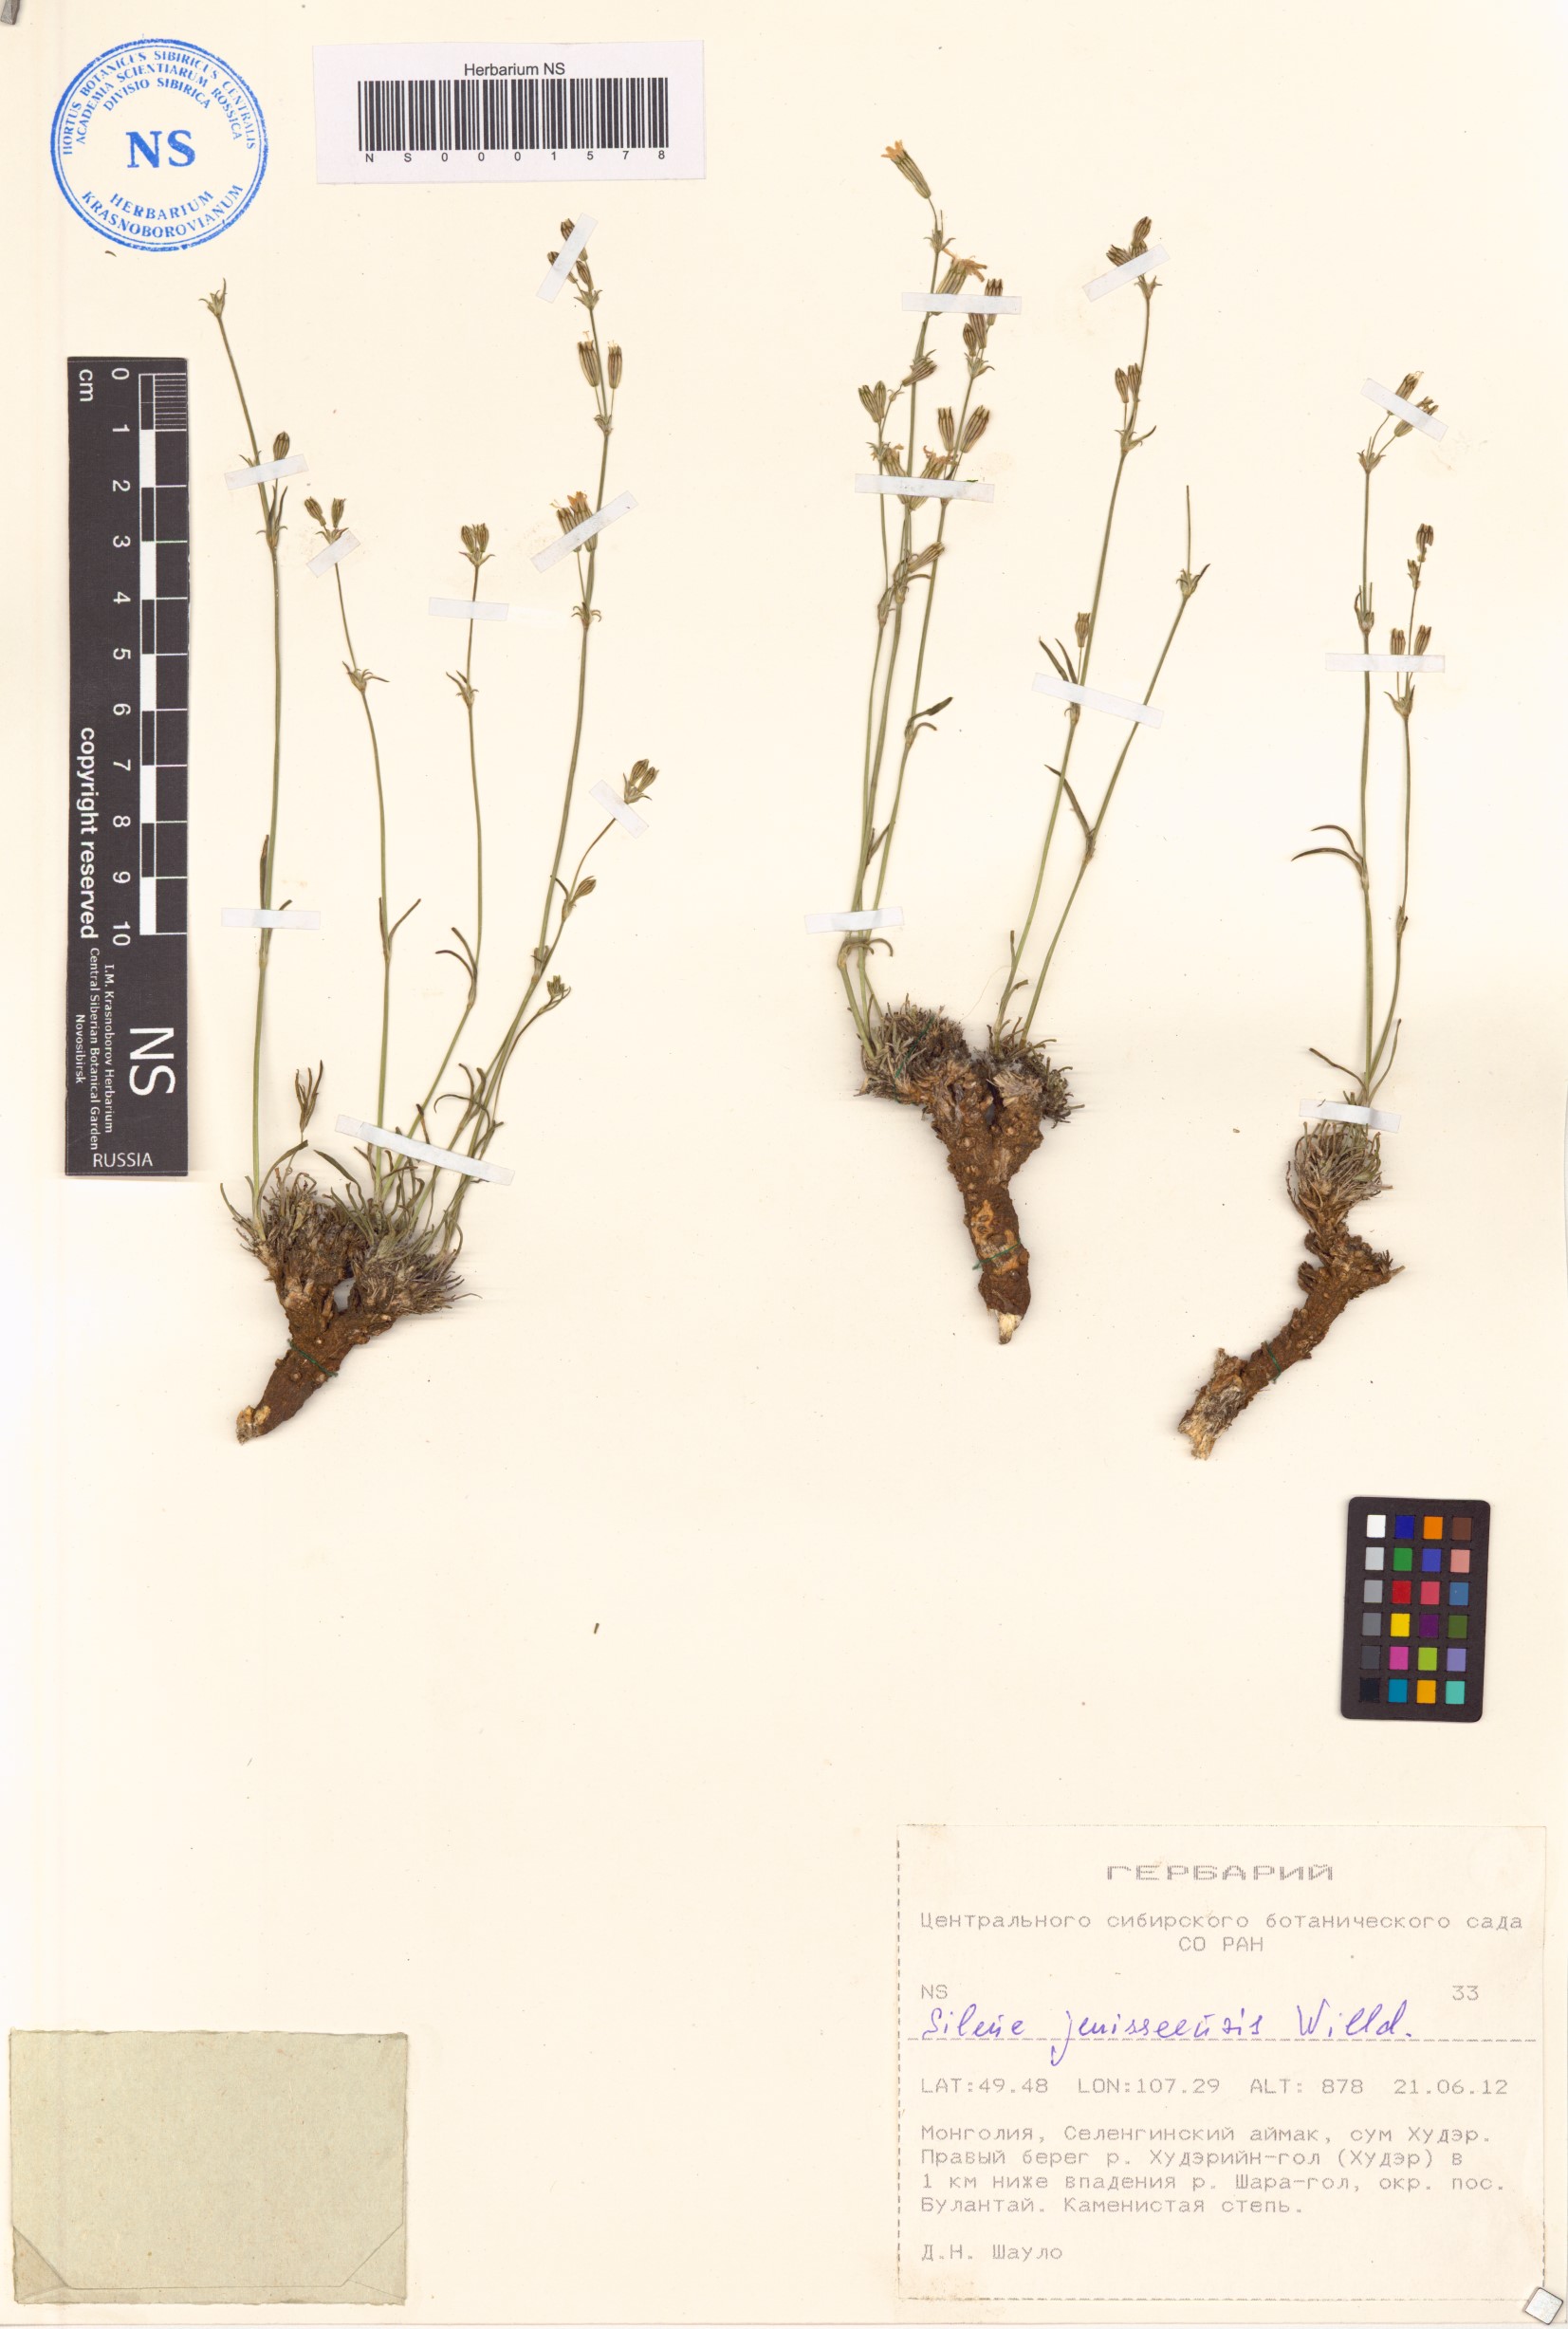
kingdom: Plantae
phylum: Tracheophyta
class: Magnoliopsida
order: Caryophyllales
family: Caryophyllaceae
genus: Silene
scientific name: Silene jeniseensis
